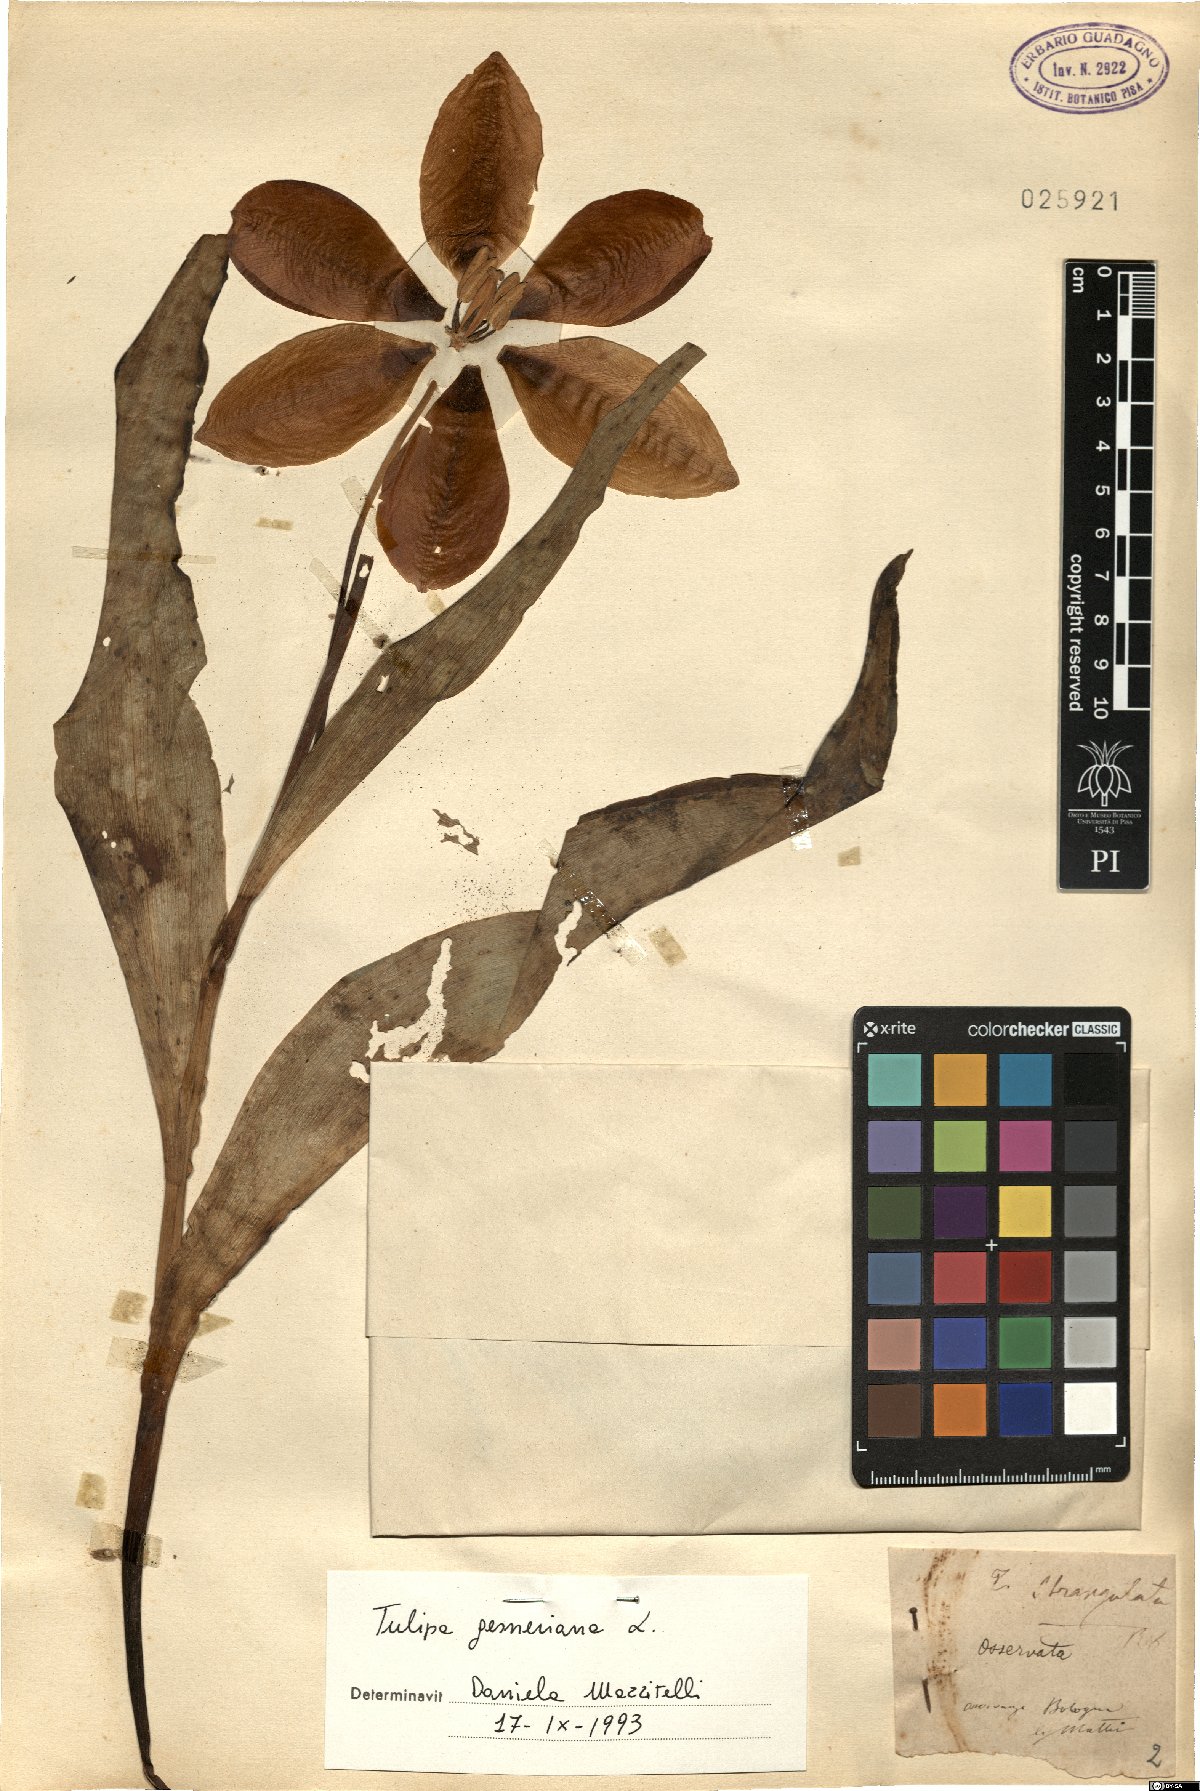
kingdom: Plantae
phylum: Tracheophyta
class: Liliopsida
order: Liliales
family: Liliaceae
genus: Tulipa
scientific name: Tulipa gesneriana
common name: Garden tulip
